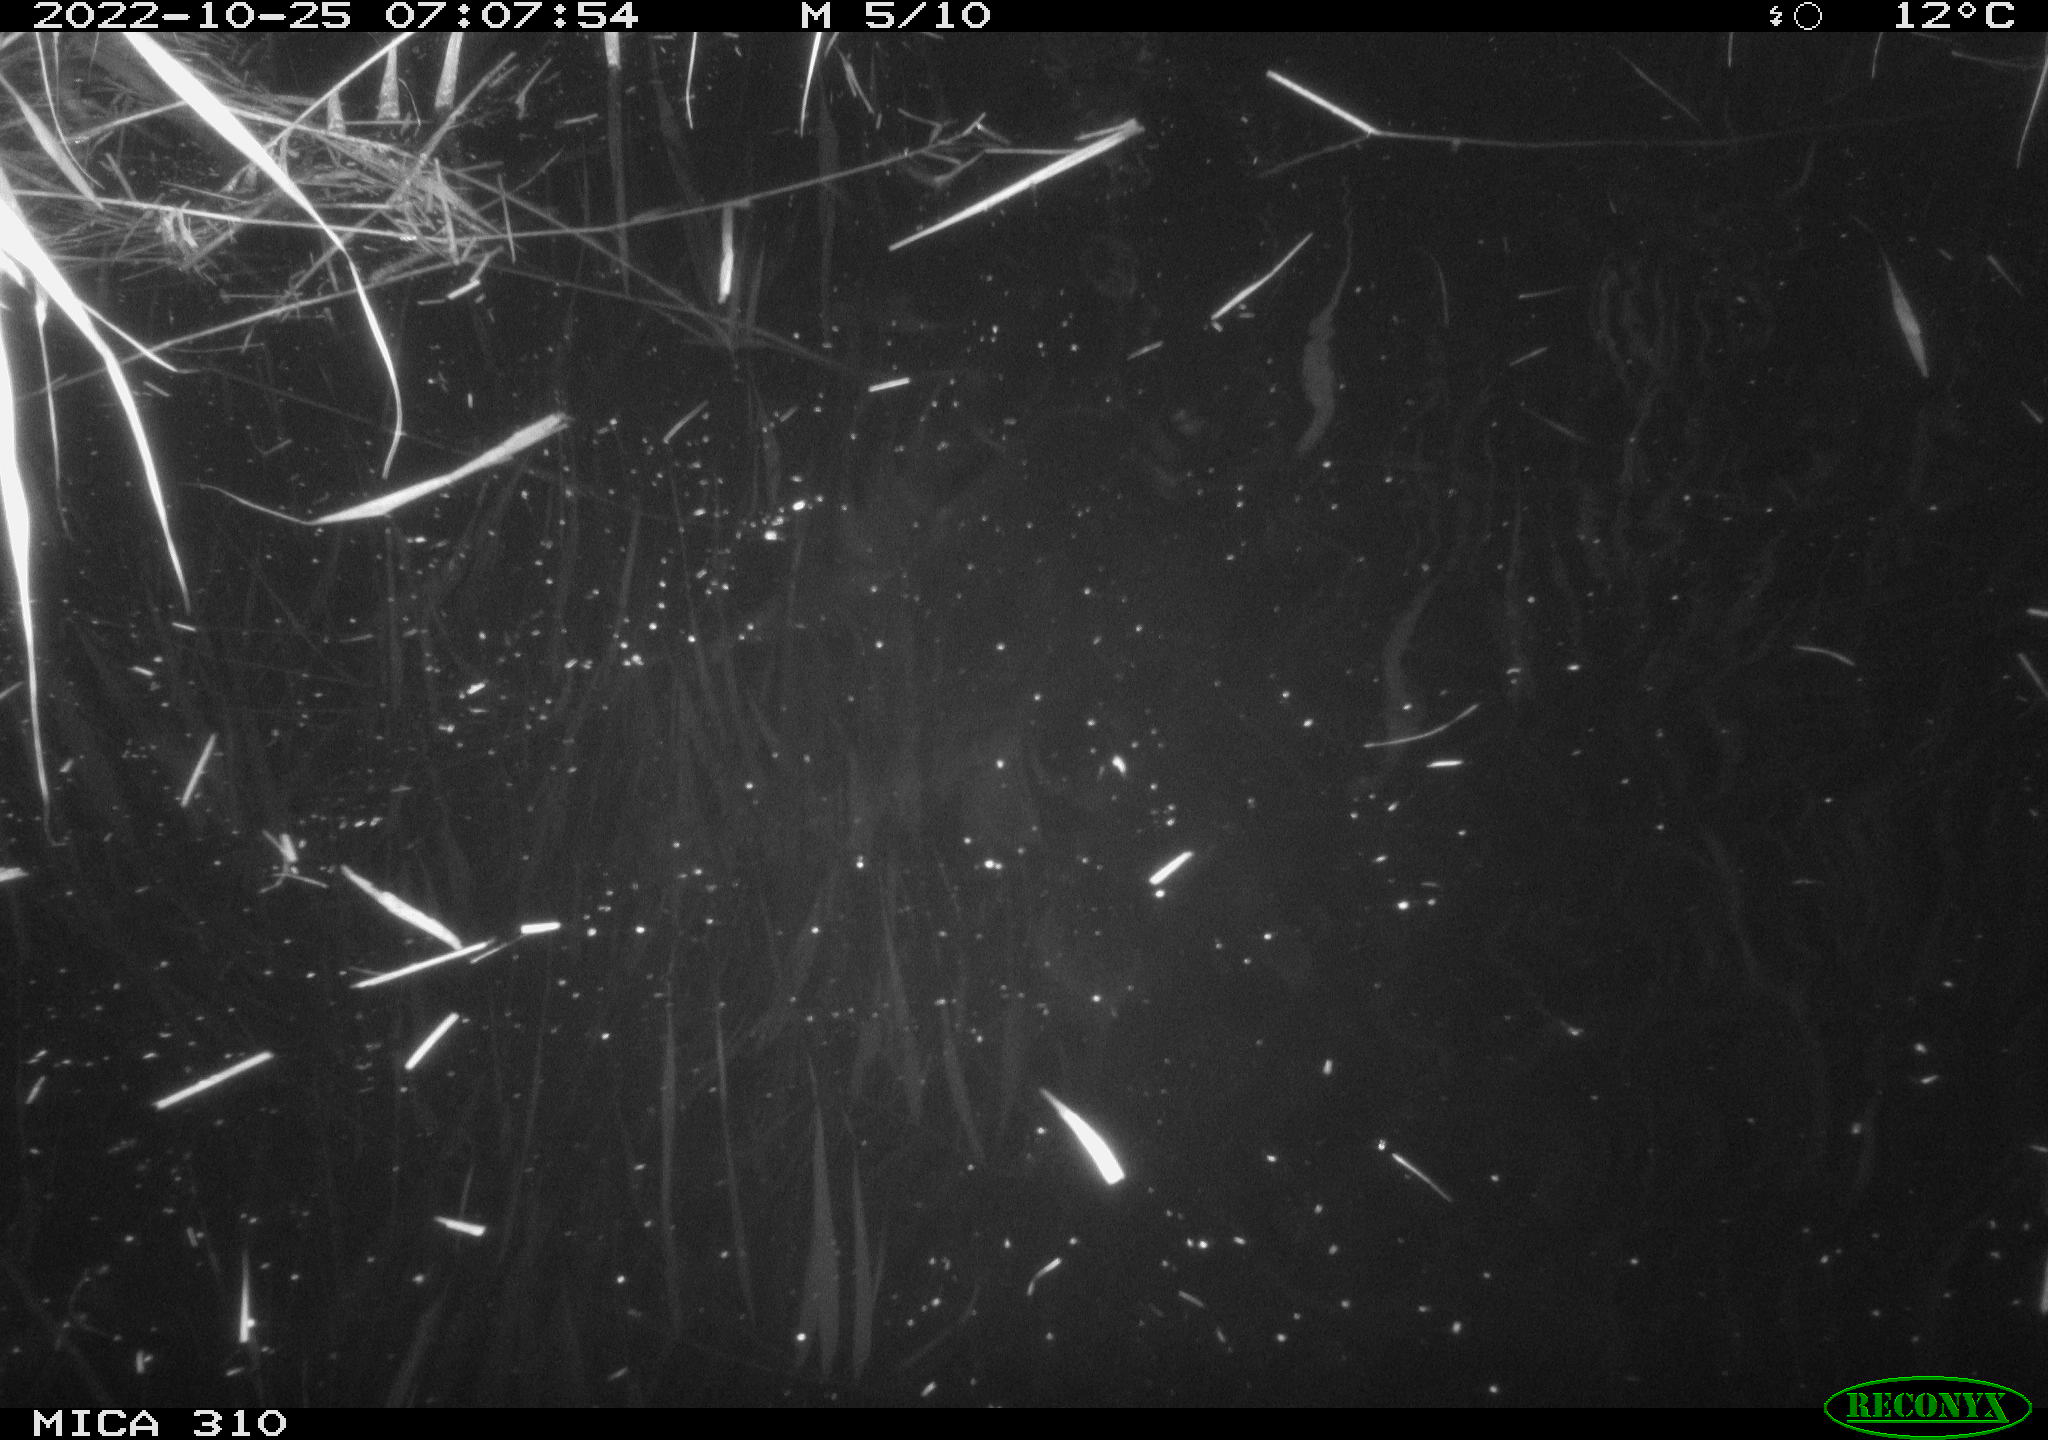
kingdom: Animalia
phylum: Chordata
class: Mammalia
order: Rodentia
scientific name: Rodentia
